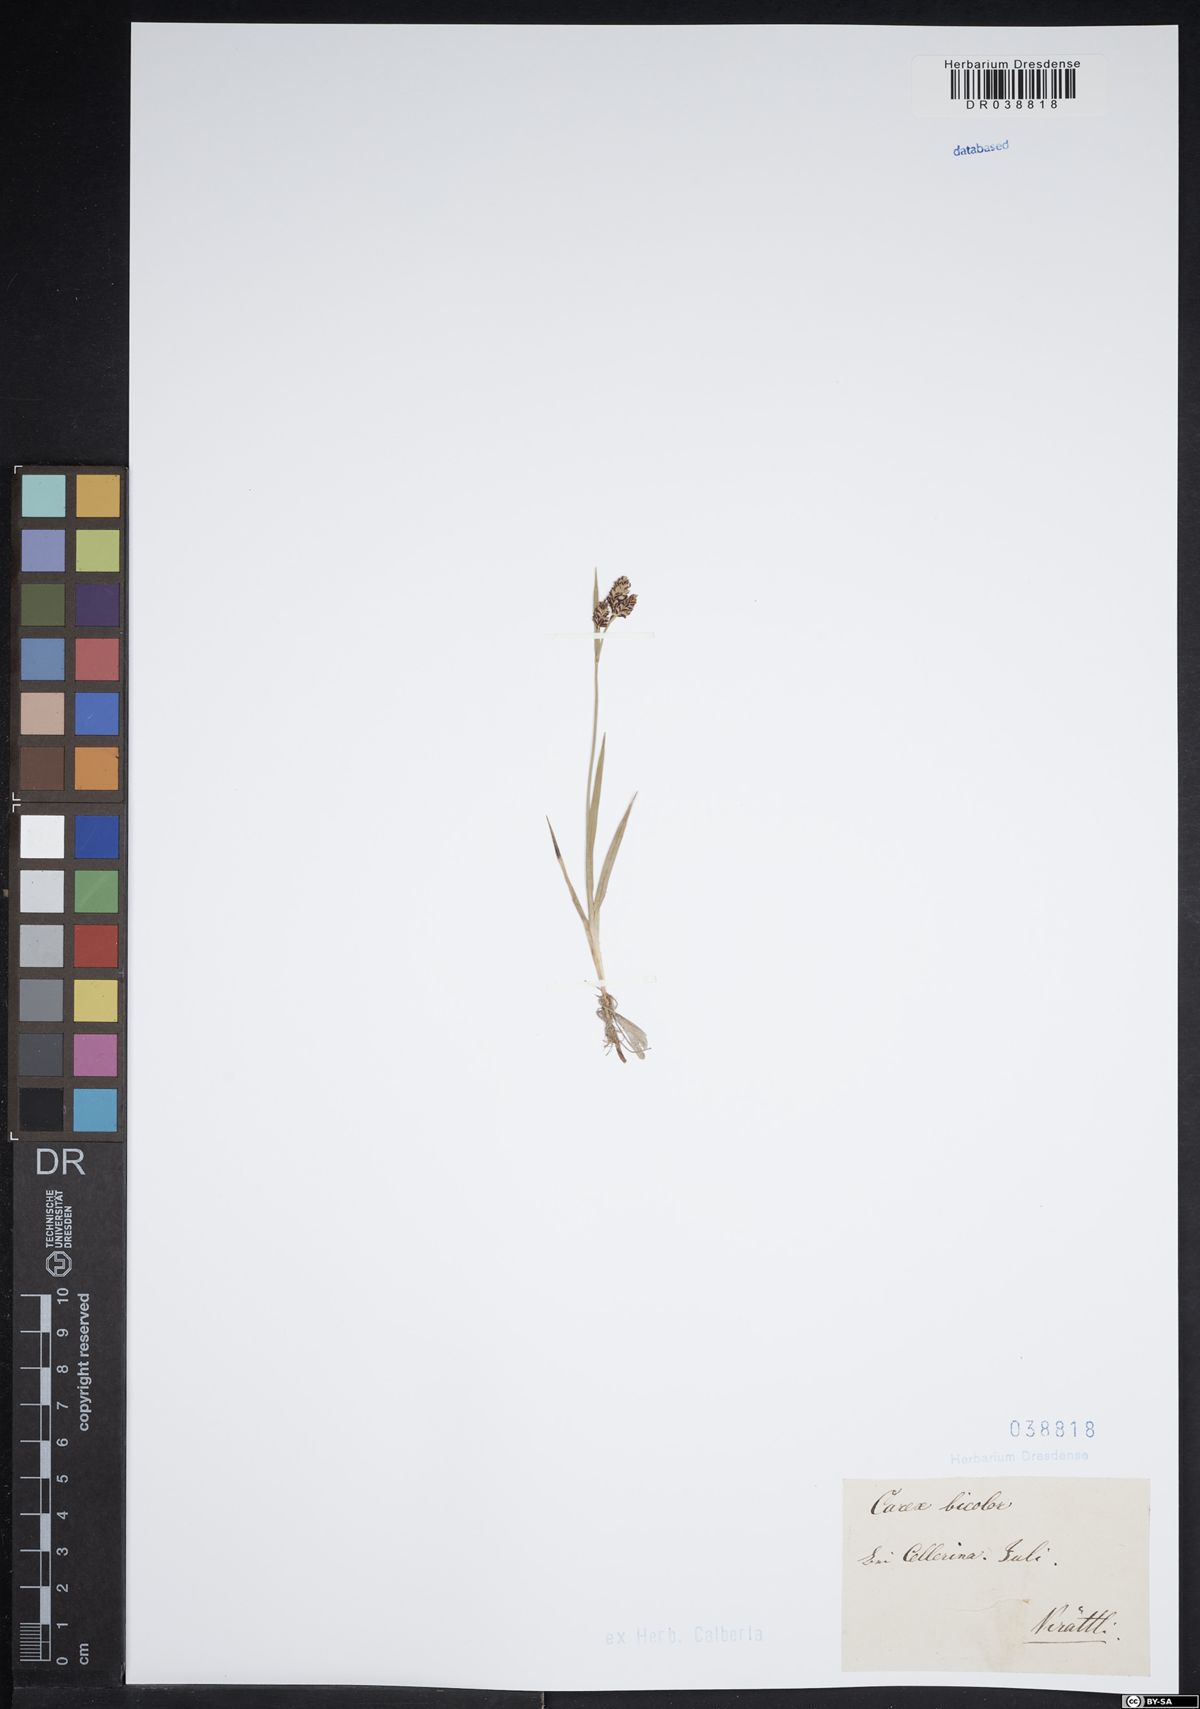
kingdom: Plantae
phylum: Tracheophyta
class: Liliopsida
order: Poales
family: Cyperaceae
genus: Carex
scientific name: Carex bicolor
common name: Bicoloured sedge
